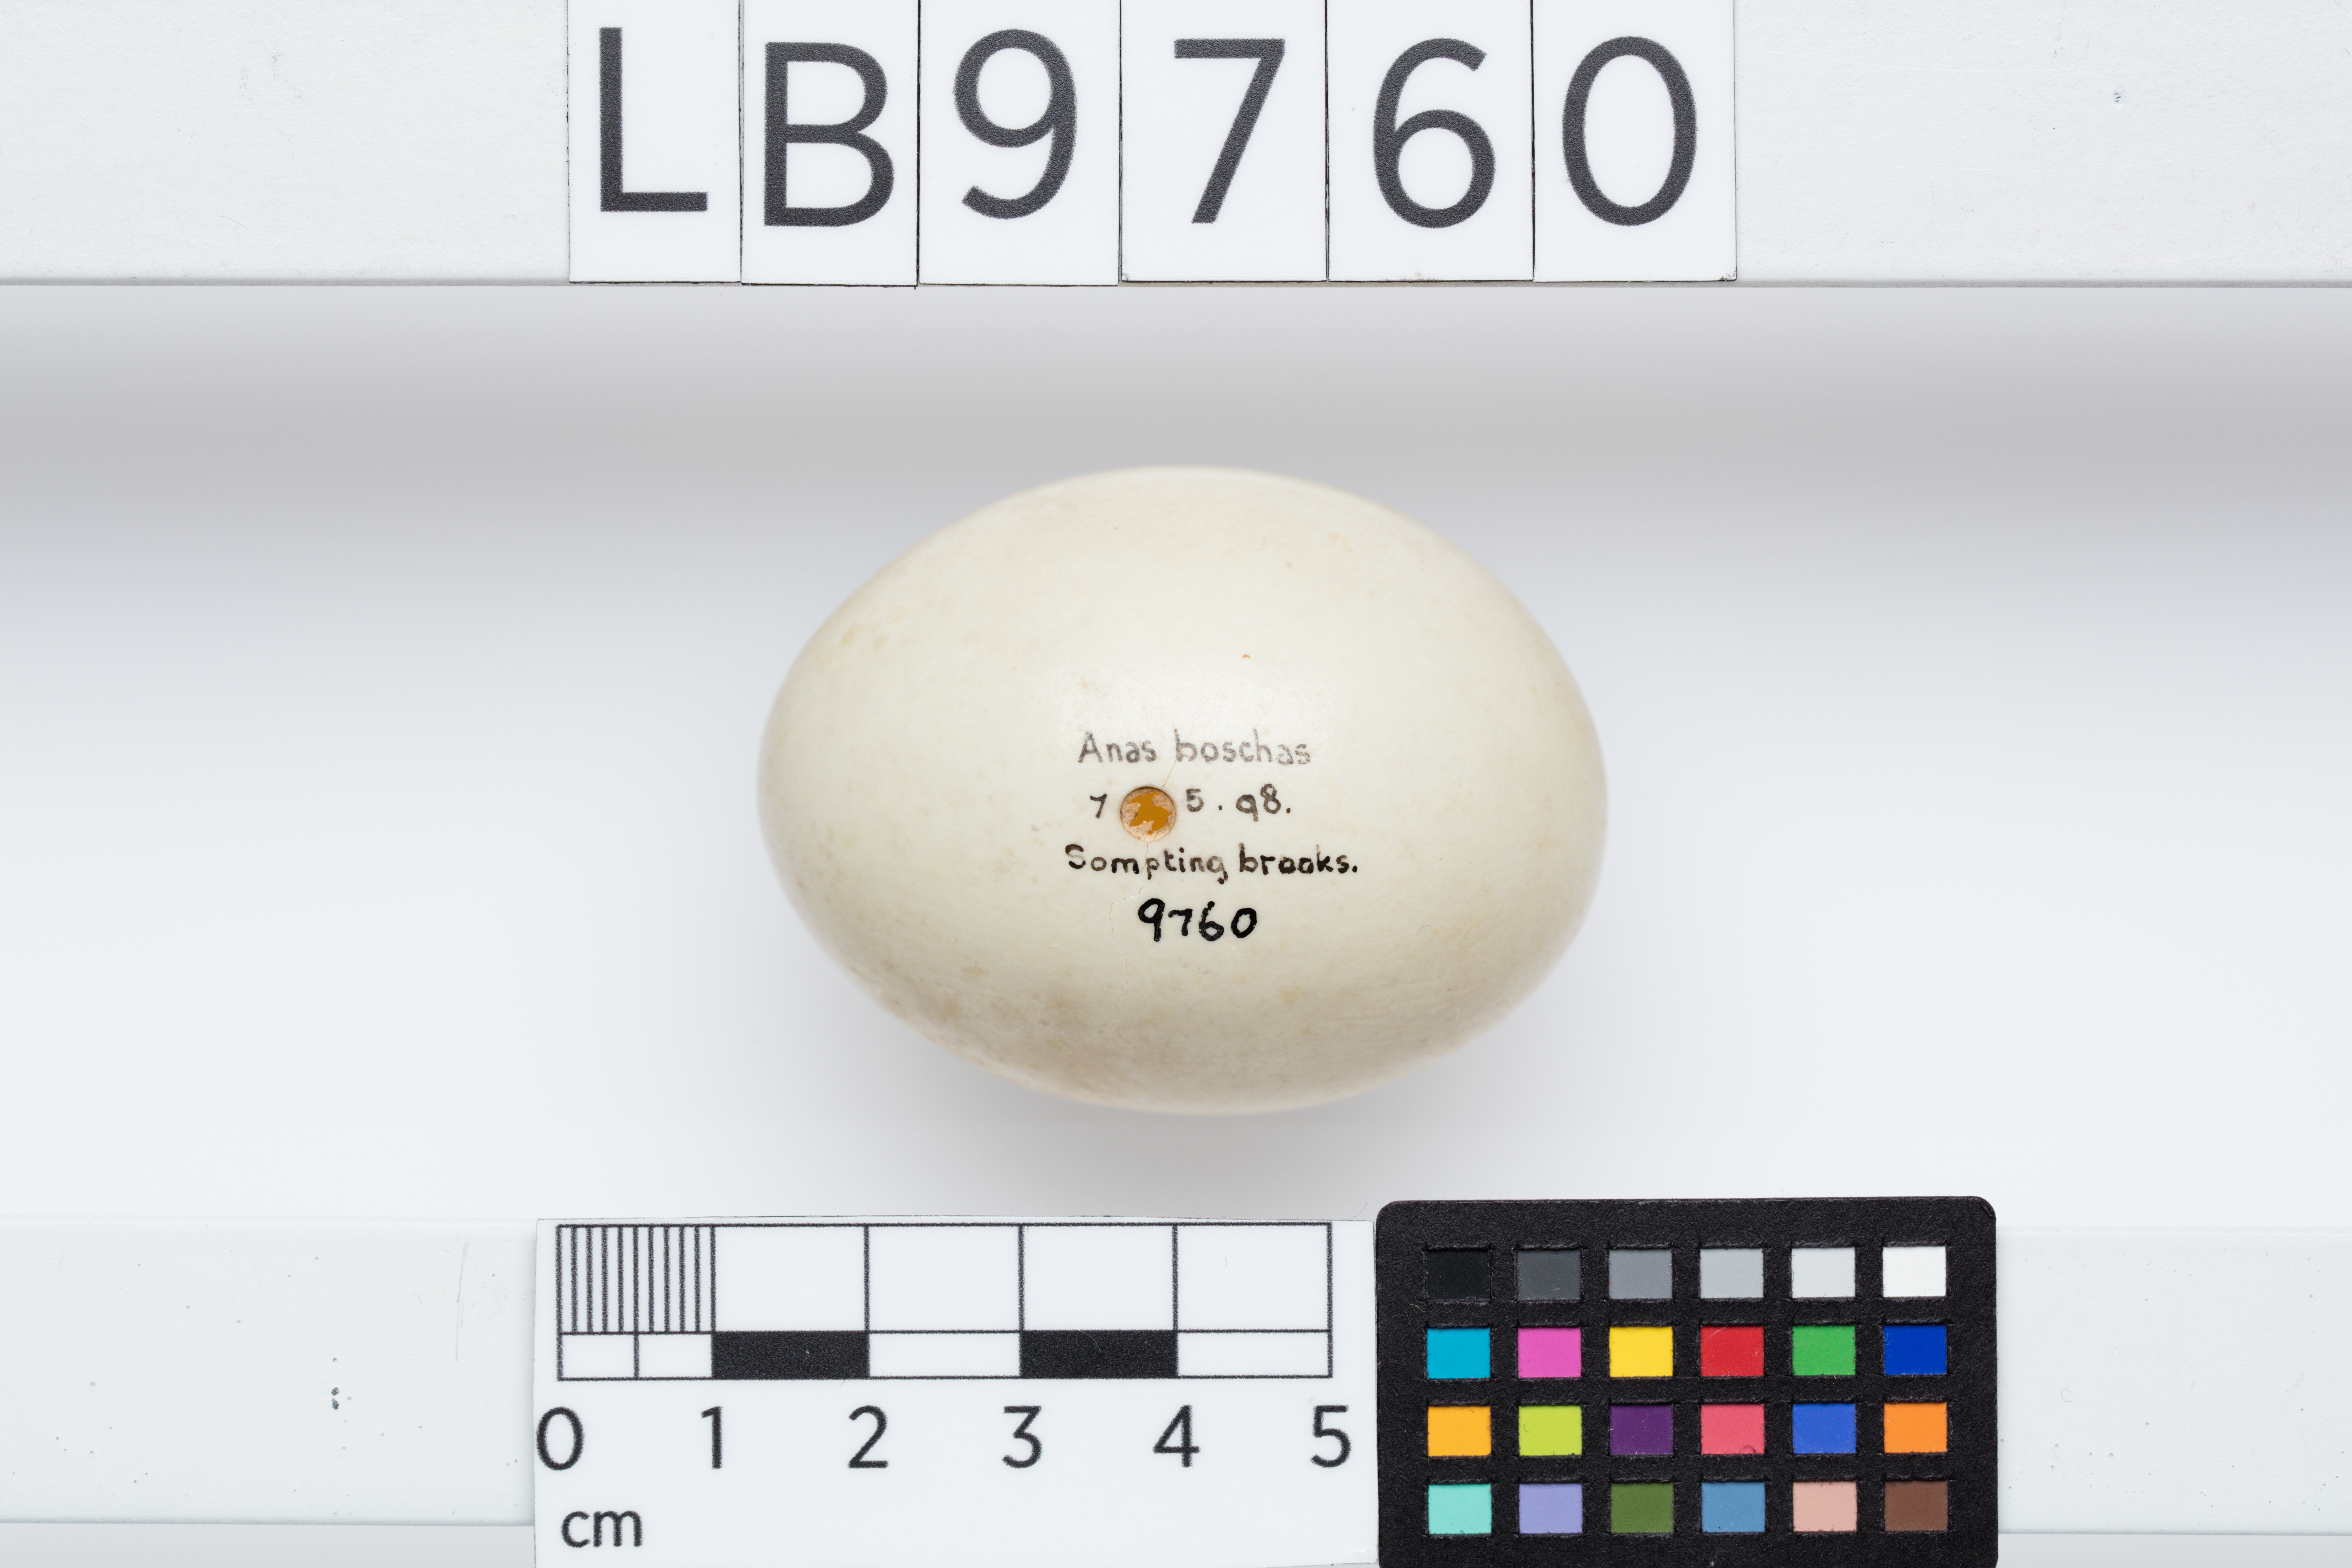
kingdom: Animalia
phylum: Chordata
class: Aves
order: Anseriformes
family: Anatidae
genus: Anas
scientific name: Anas platyrhynchos
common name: Mallard
